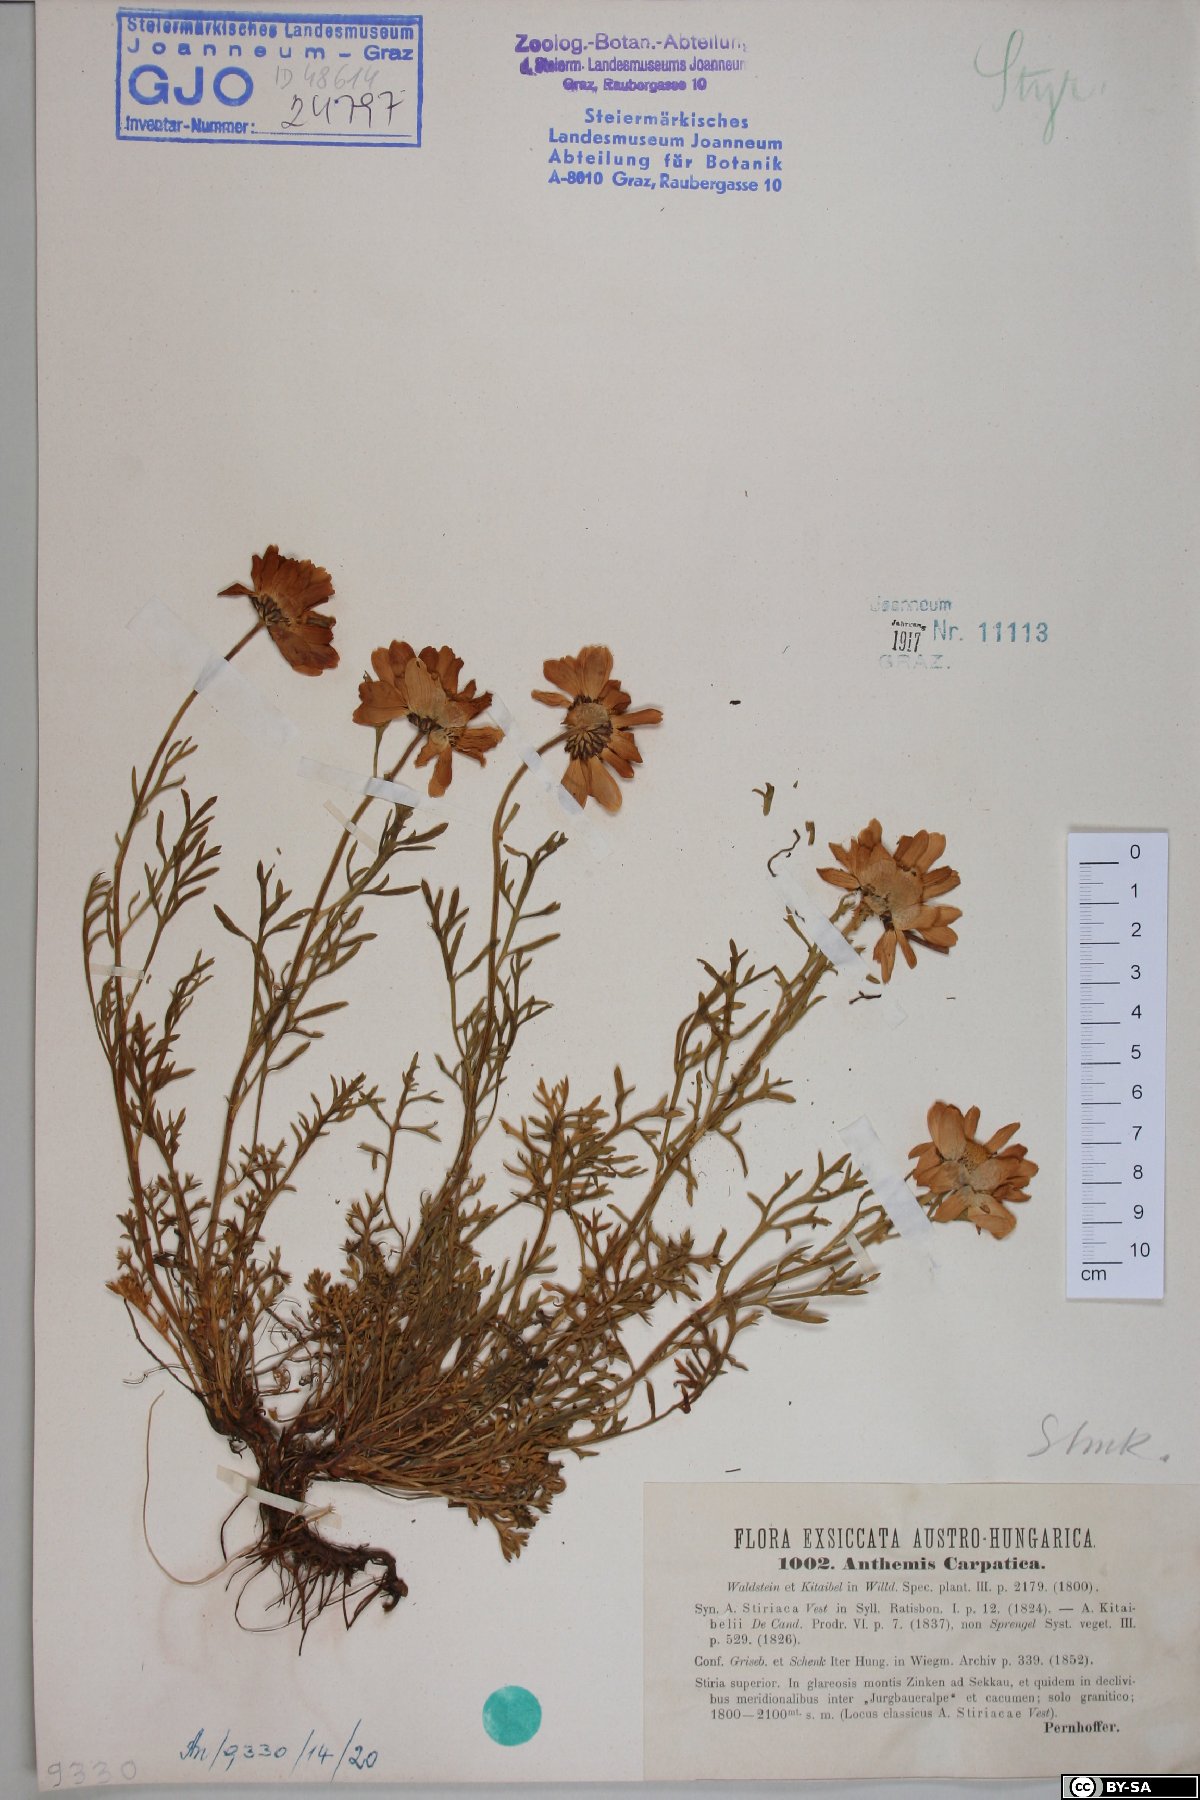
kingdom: Plantae
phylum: Tracheophyta
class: Magnoliopsida
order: Asterales
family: Asteraceae
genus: Anthemis
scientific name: Anthemis cretica
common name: Mountain dog-daisy
